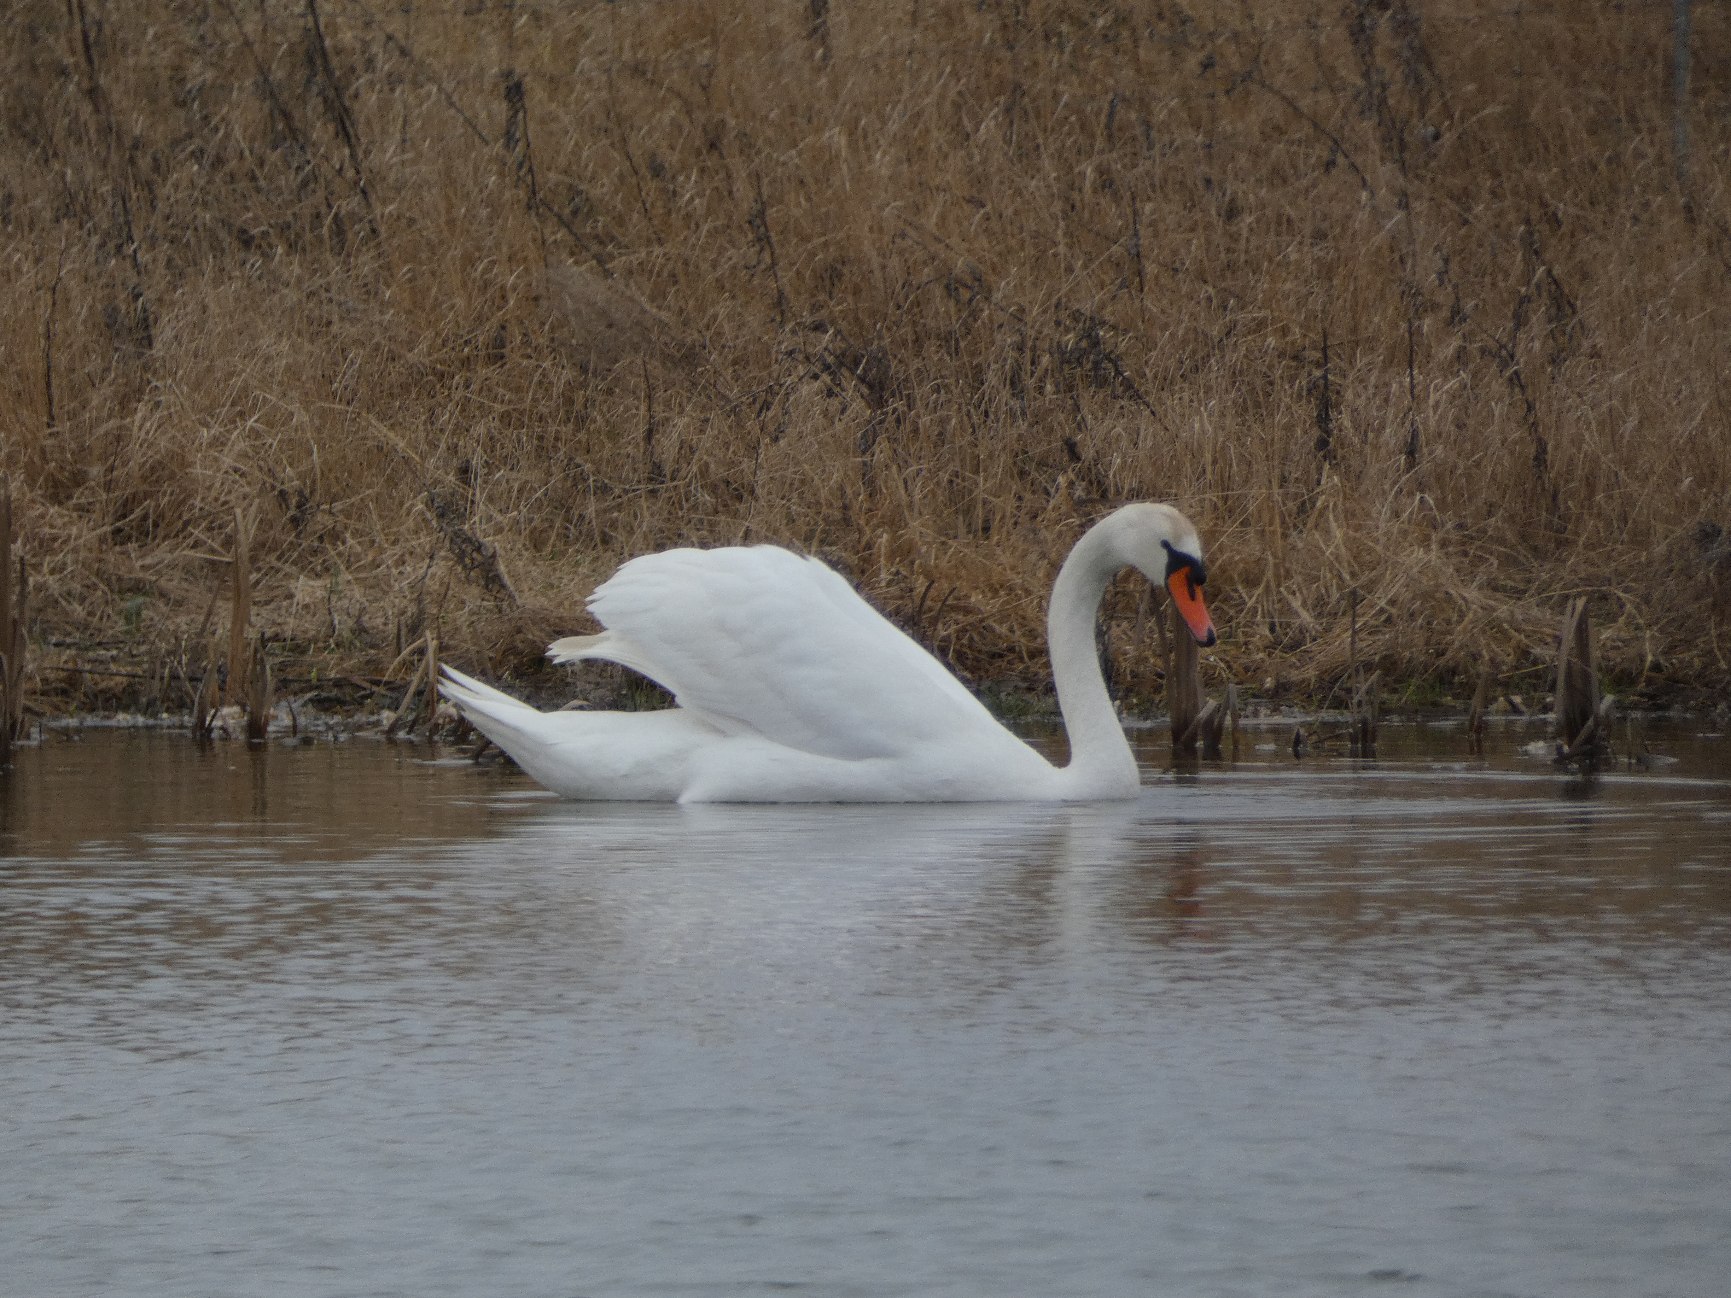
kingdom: Animalia
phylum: Chordata
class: Aves
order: Anseriformes
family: Anatidae
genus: Cygnus
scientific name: Cygnus olor
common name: Knopsvane
